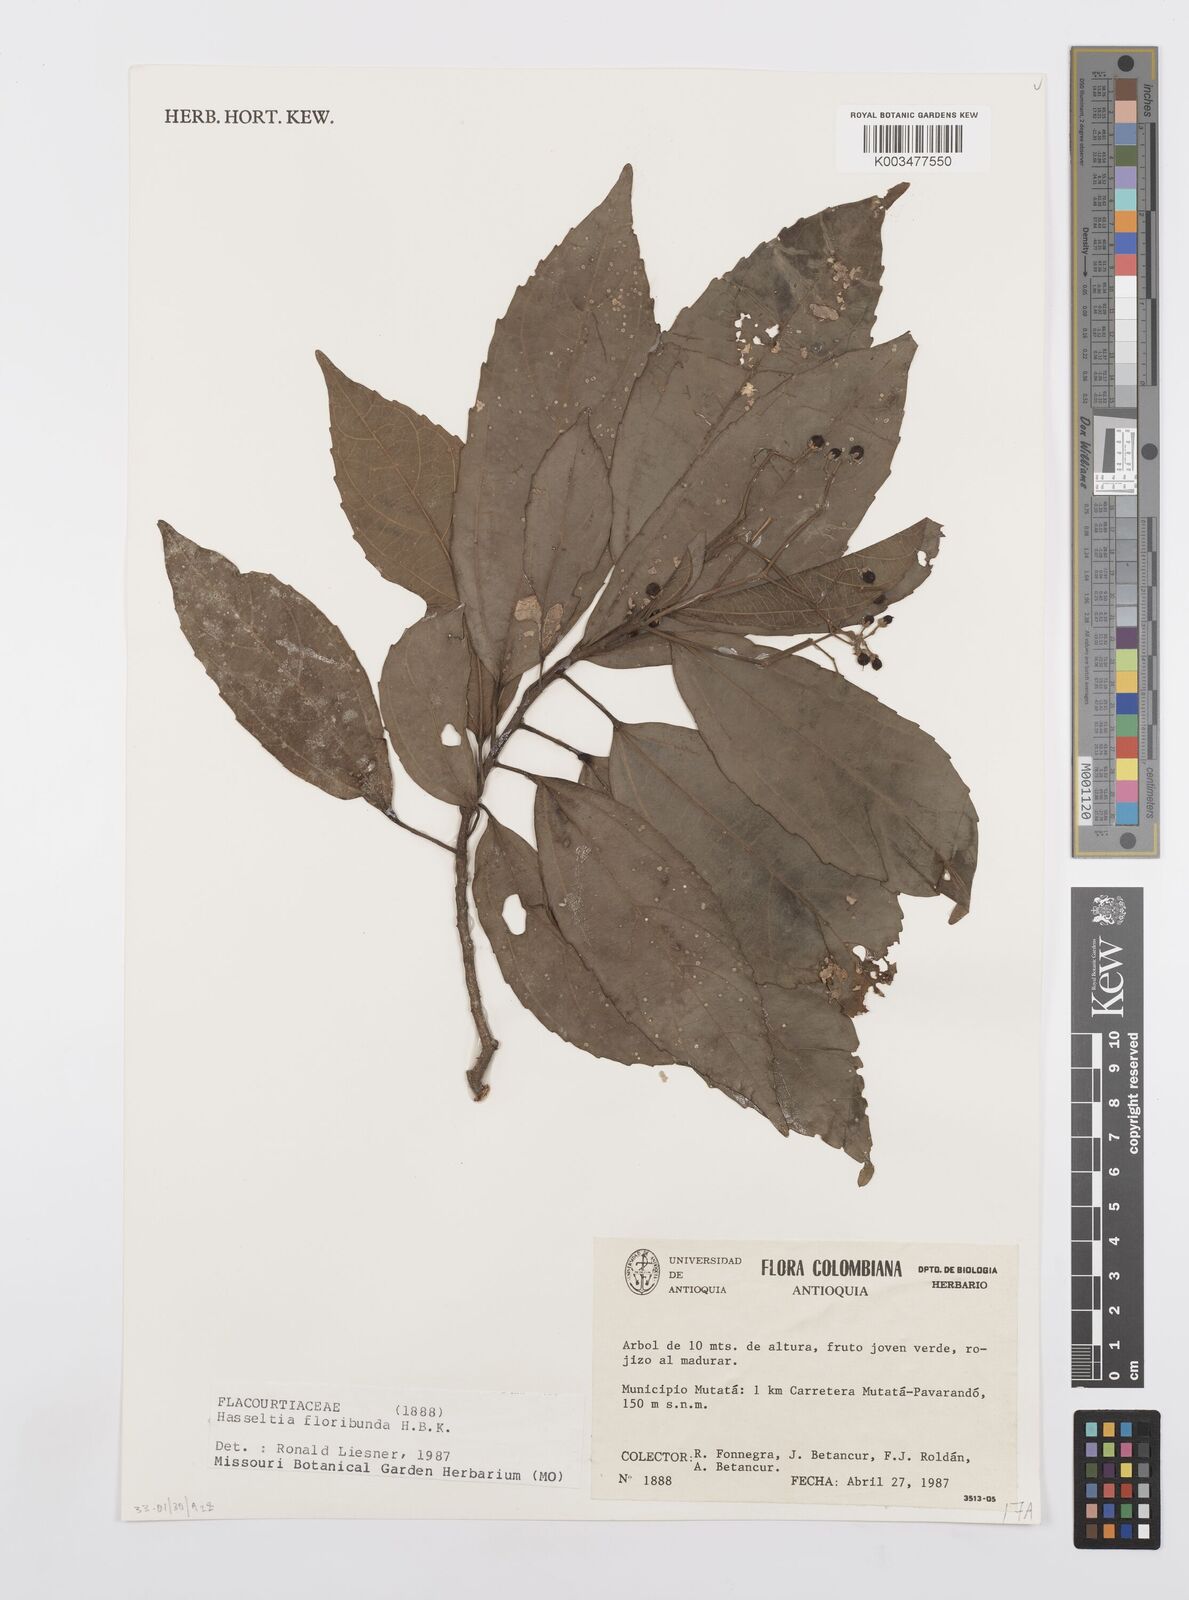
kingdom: Plantae
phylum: Tracheophyta
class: Magnoliopsida
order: Malpighiales
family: Salicaceae
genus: Hasseltia
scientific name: Hasseltia floribunda
